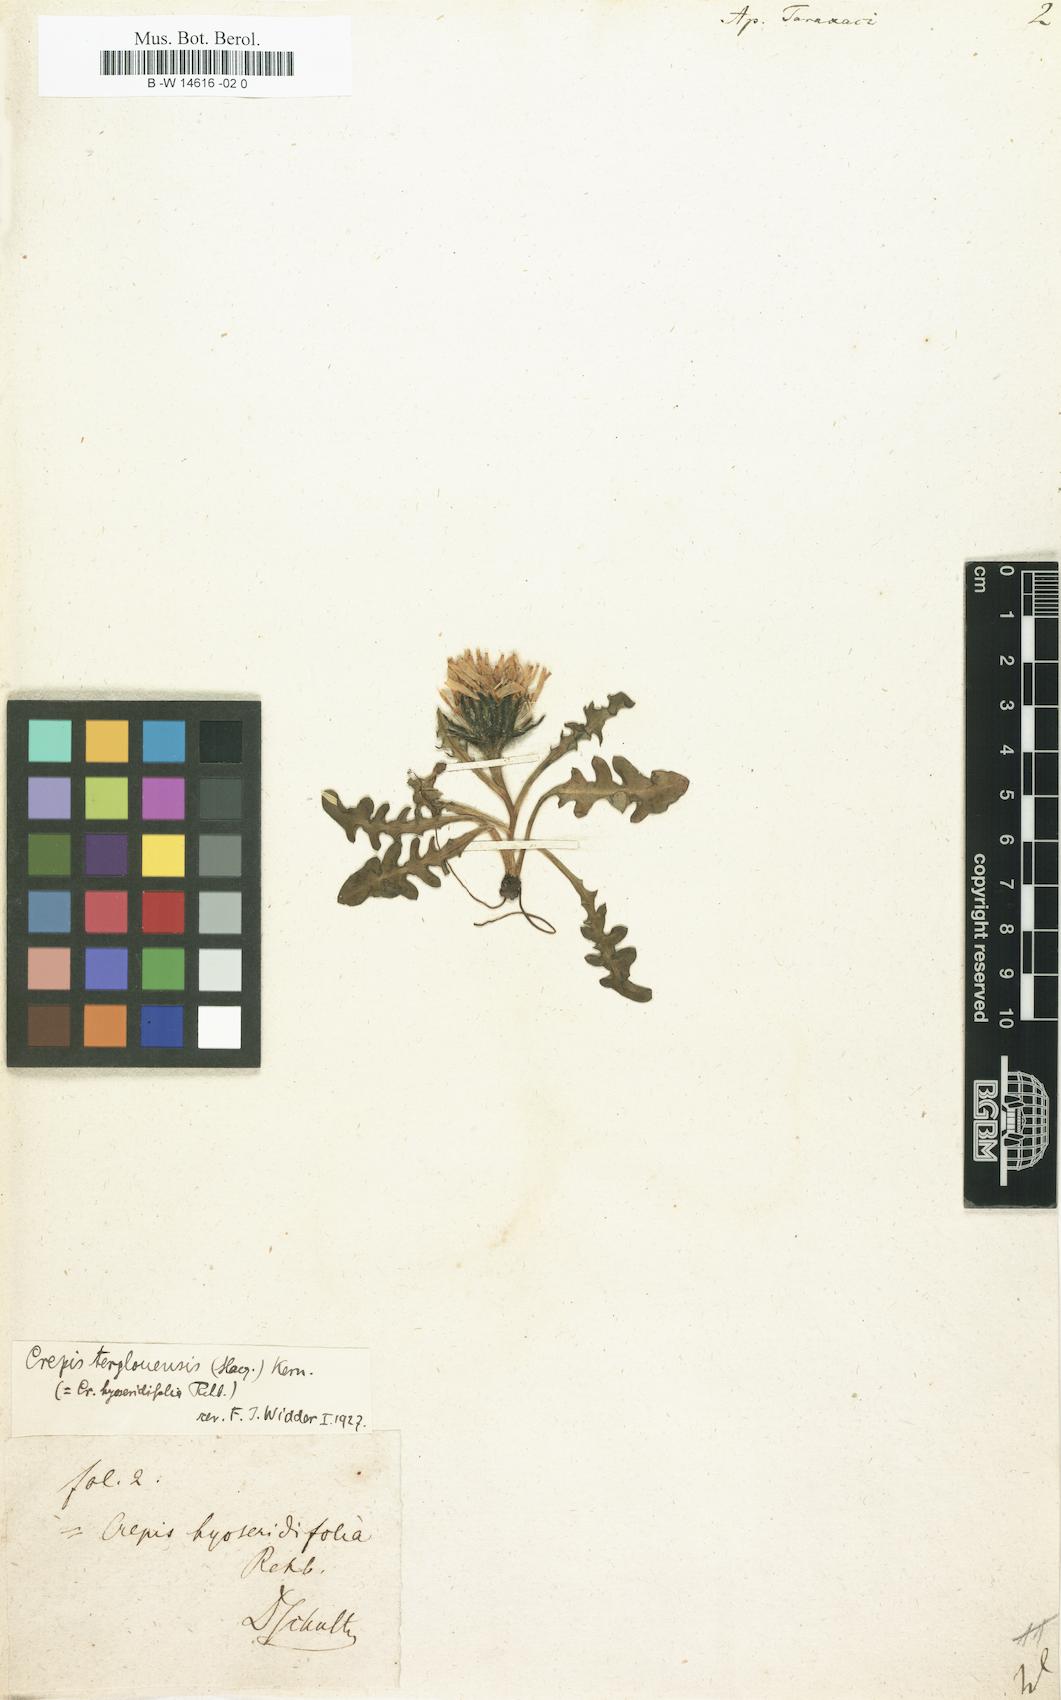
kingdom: Plantae
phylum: Tracheophyta
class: Magnoliopsida
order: Asterales
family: Asteraceae
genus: Scorzoneroides
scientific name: Scorzoneroides
